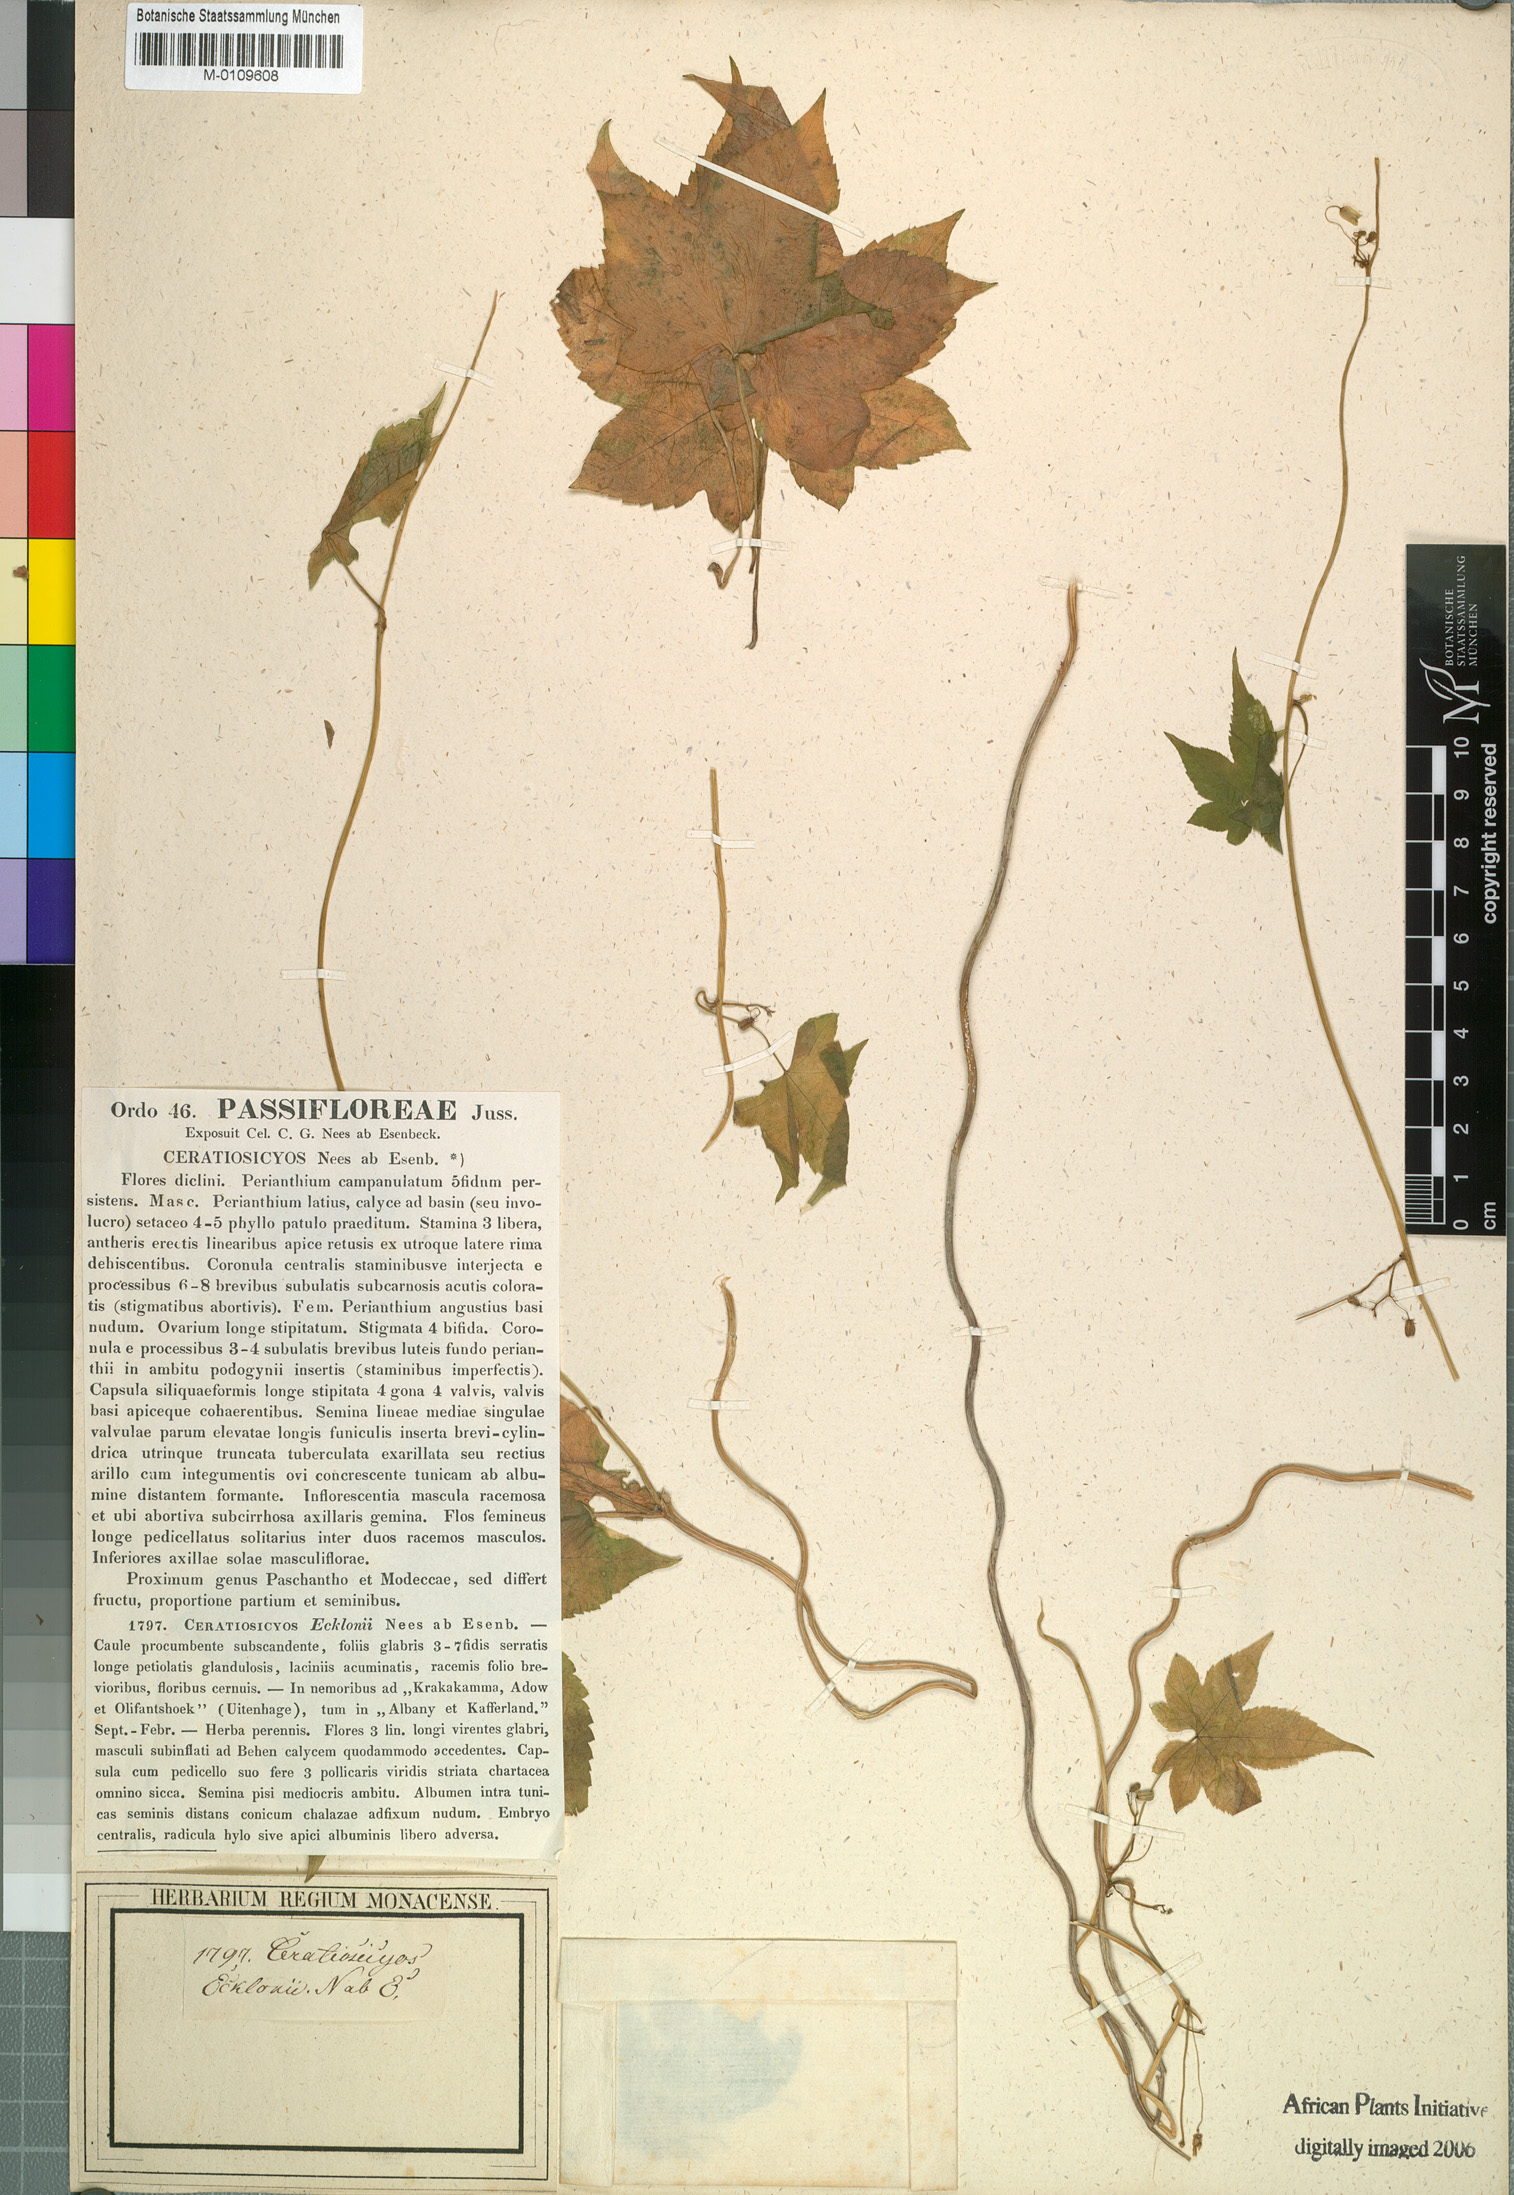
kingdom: Plantae
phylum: Tracheophyta
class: Magnoliopsida
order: Malpighiales
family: Achariaceae
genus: Ceratiosicyos
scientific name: Ceratiosicyos laevis
